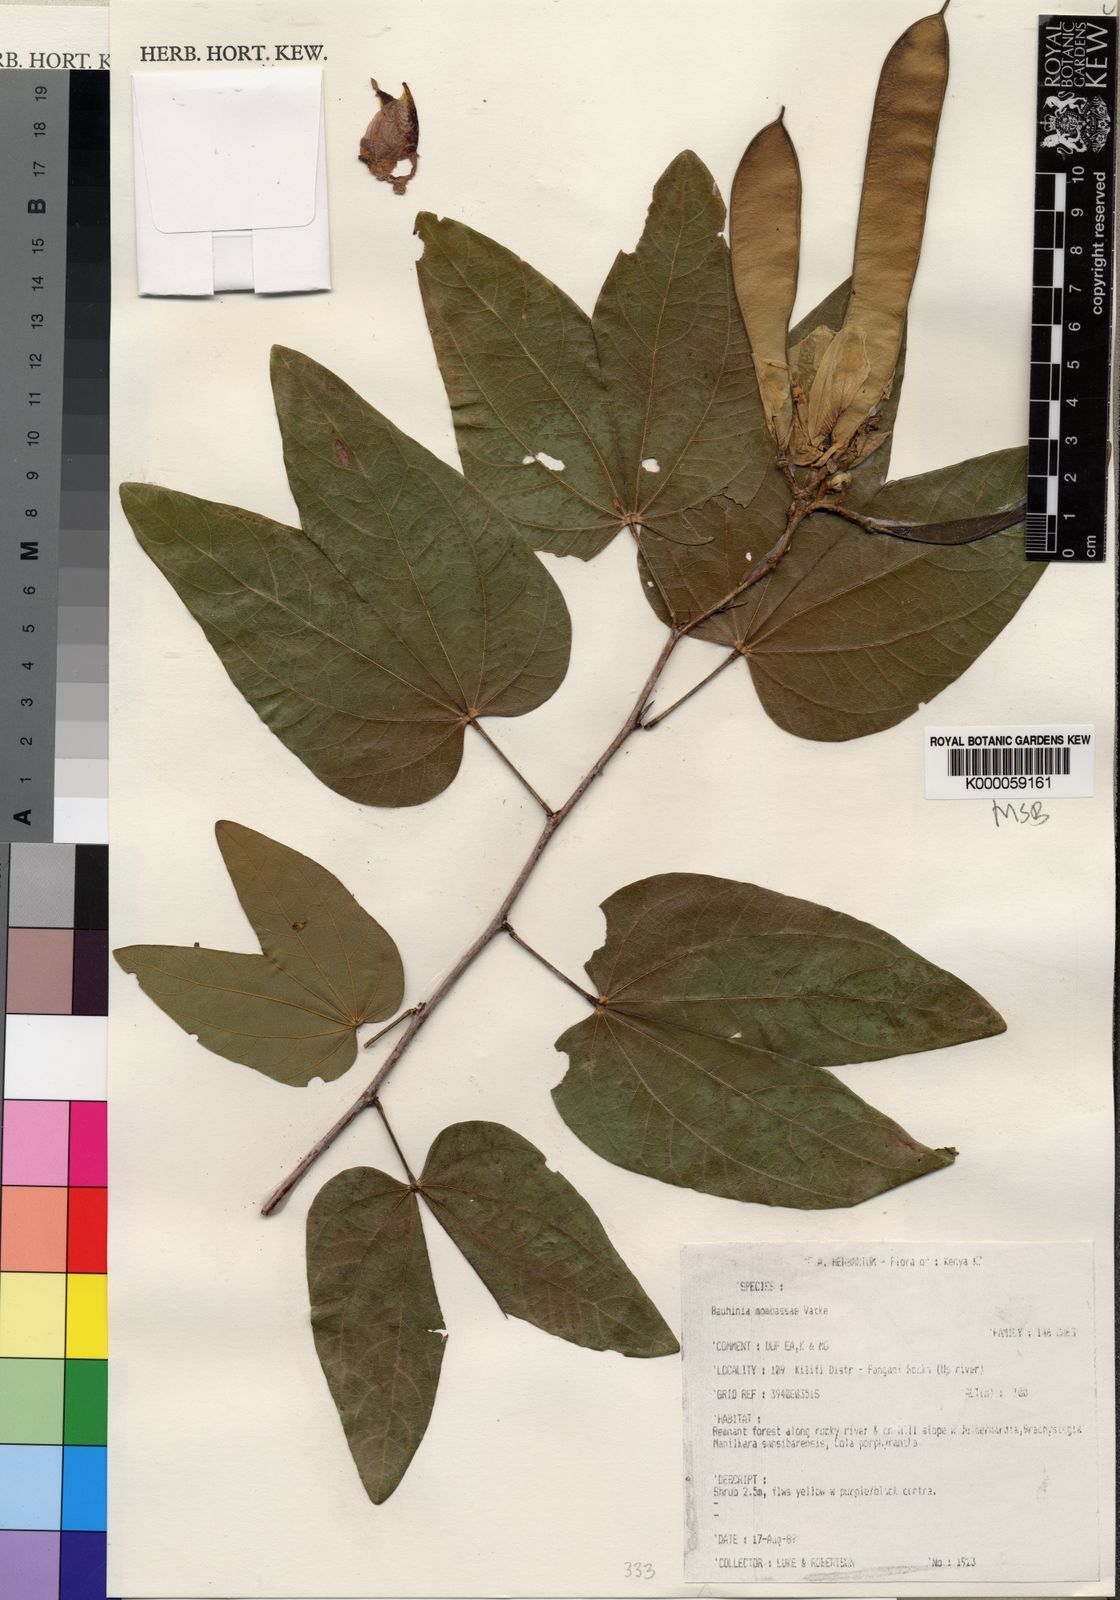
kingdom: Plantae
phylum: Tracheophyta
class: Magnoliopsida
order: Fabales
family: Fabaceae
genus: Bauhinia
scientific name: Bauhinia mombassae
